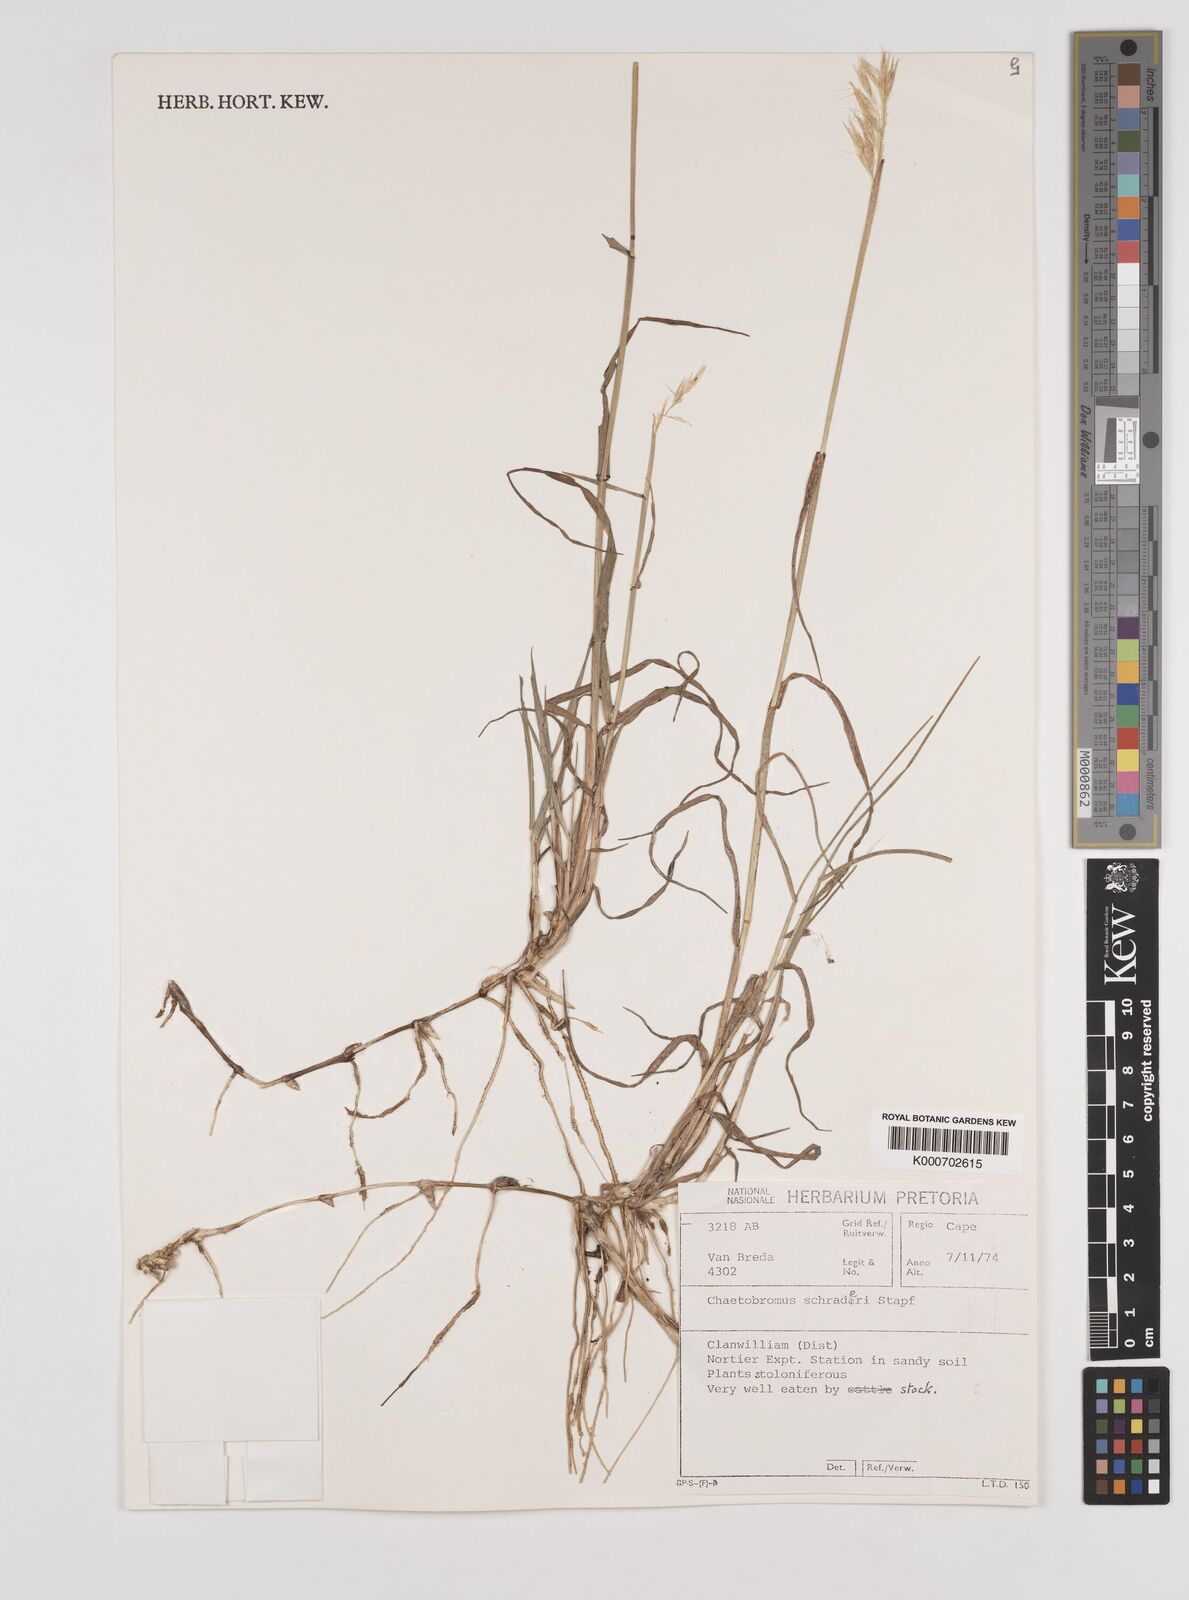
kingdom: Plantae
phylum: Tracheophyta
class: Liliopsida
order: Poales
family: Poaceae
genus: Chaetobromus
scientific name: Chaetobromus involucratus
